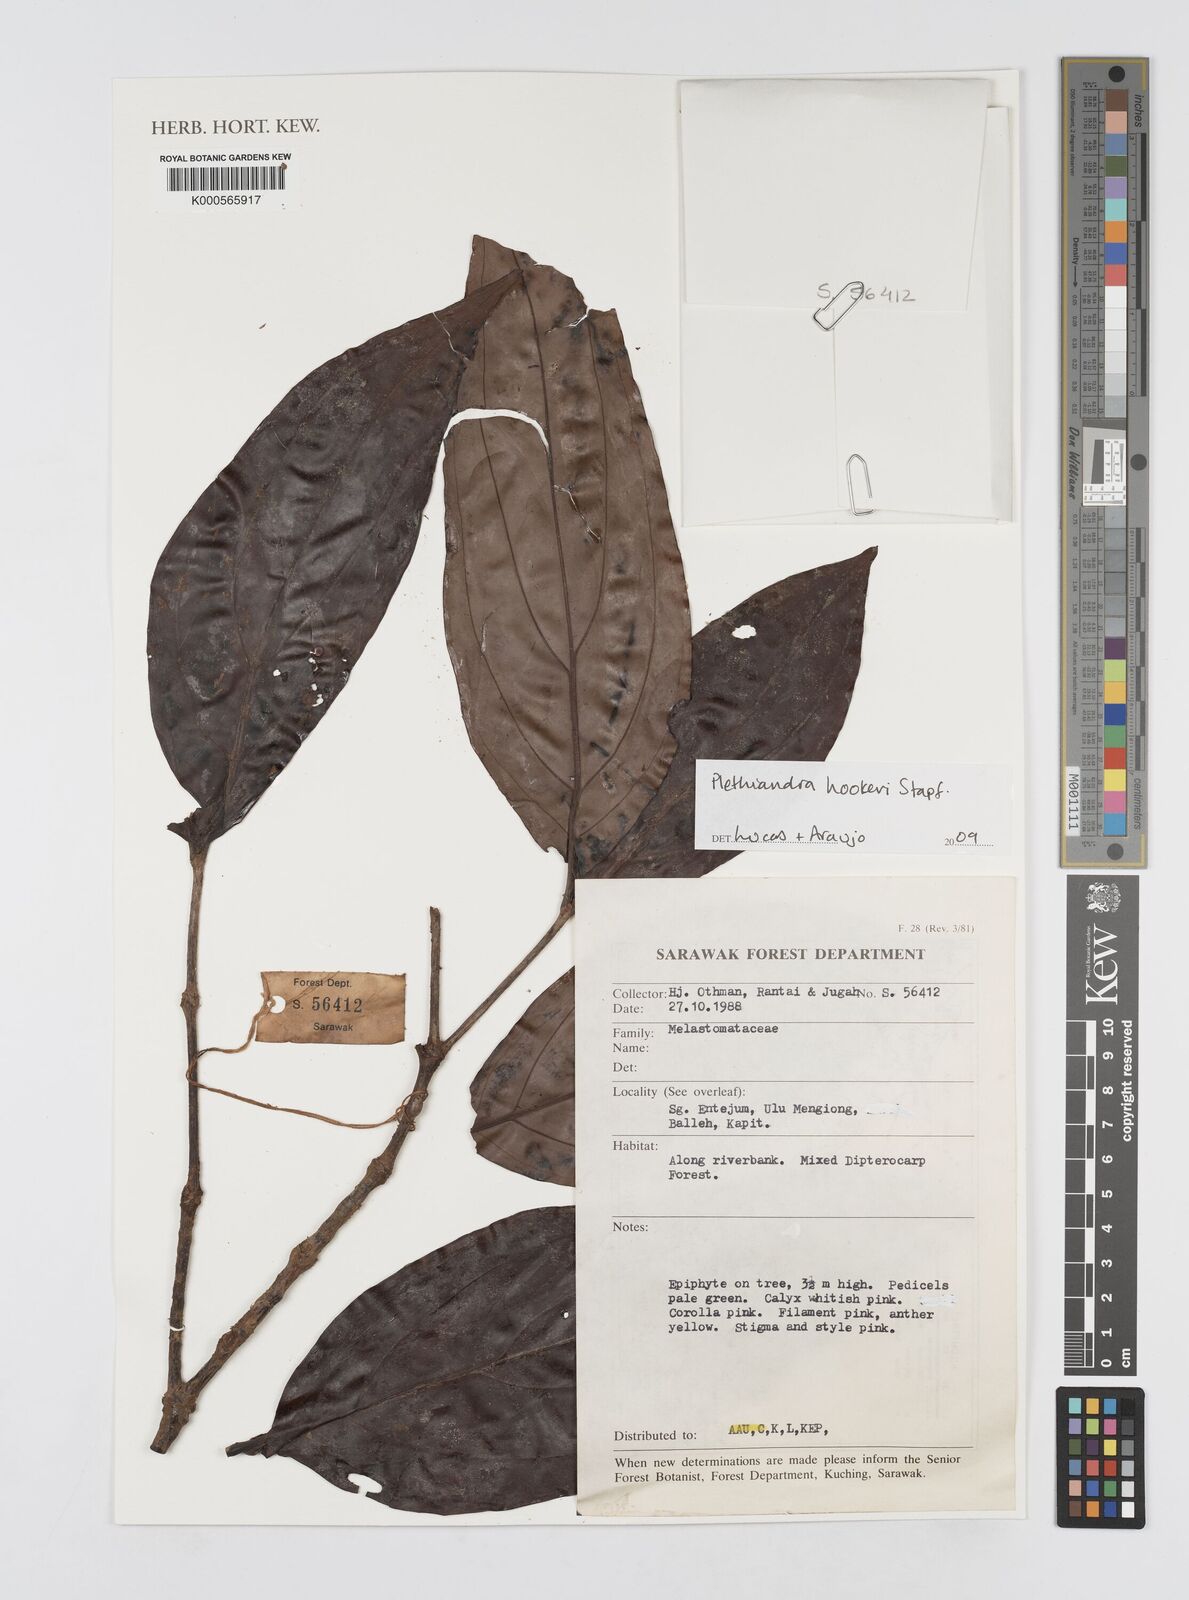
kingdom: Plantae
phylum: Tracheophyta
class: Magnoliopsida
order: Myrtales
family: Melastomataceae
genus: Plethiandra
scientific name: Plethiandra hookeri
